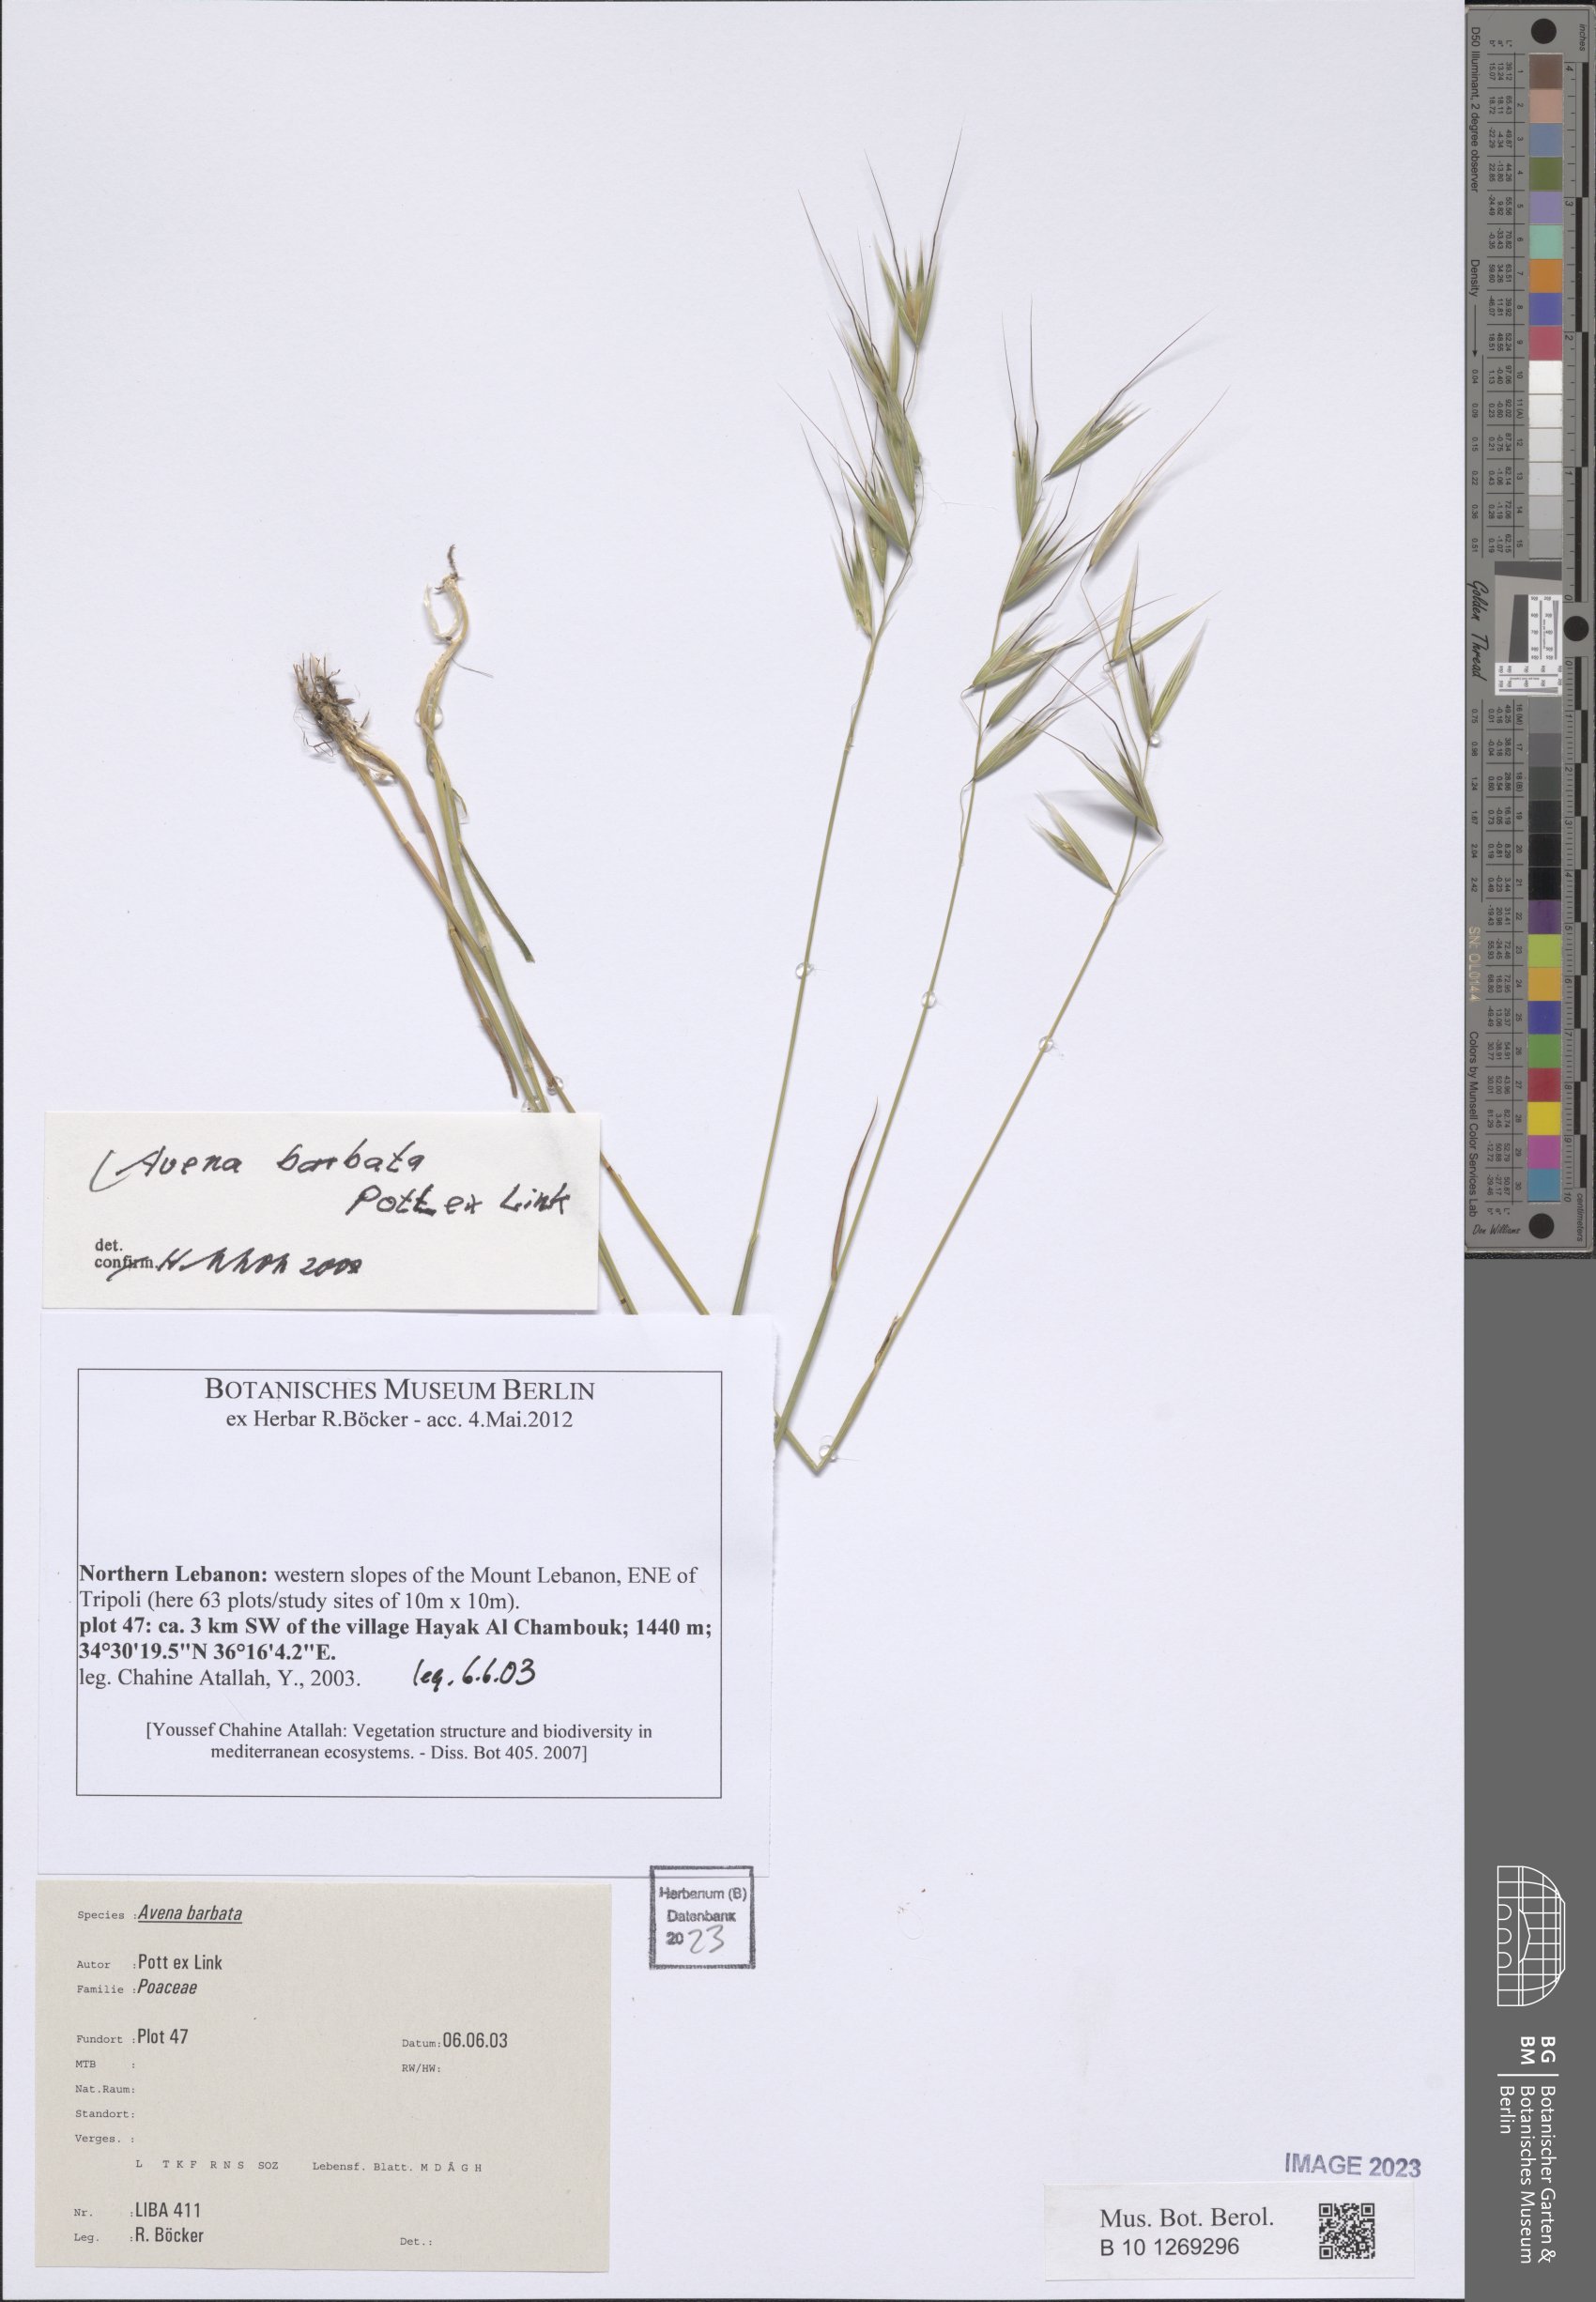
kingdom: Plantae
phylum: Tracheophyta
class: Liliopsida
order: Poales
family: Poaceae
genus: Avena
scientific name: Avena barbata
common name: Slender oat
